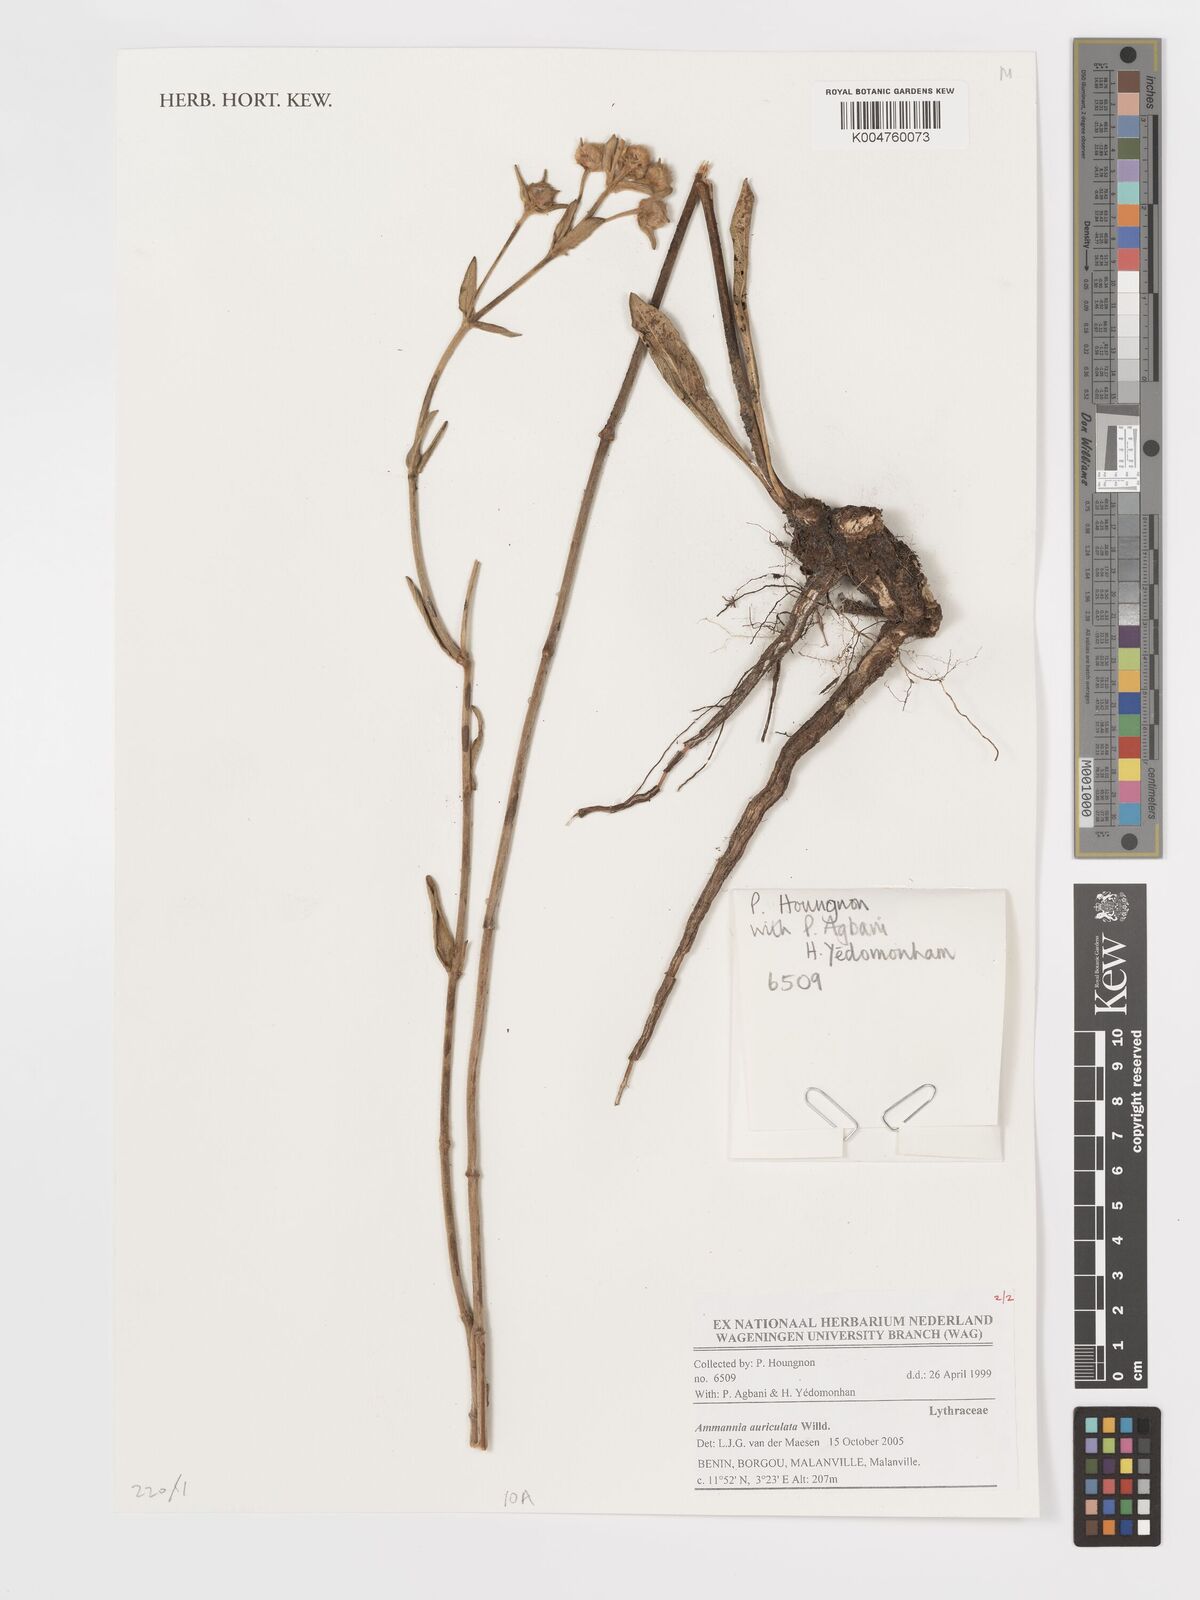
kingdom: Plantae
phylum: Tracheophyta
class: Magnoliopsida
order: Myrtales
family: Lythraceae
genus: Ammannia
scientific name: Ammannia auriculata
